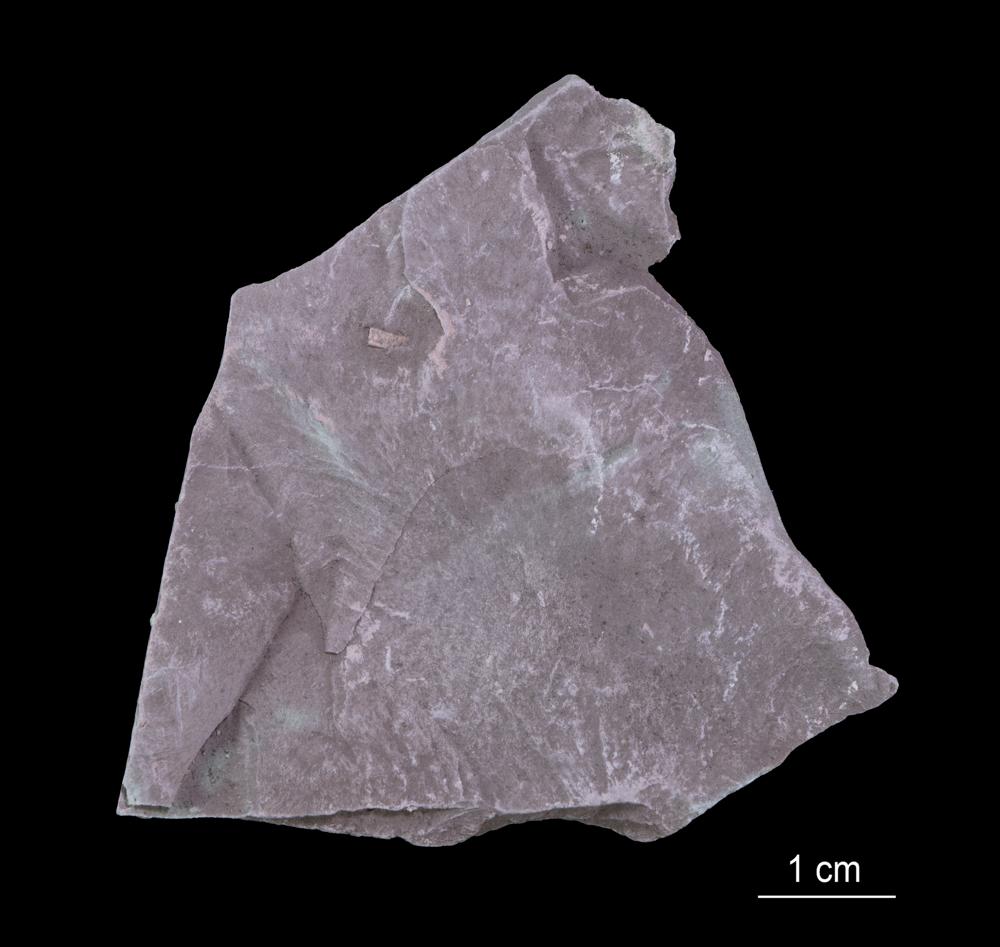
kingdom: Chromista
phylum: Foraminifera
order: Astrorhizida
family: Hyperamminidae
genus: Platysolenites
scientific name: Platysolenites
